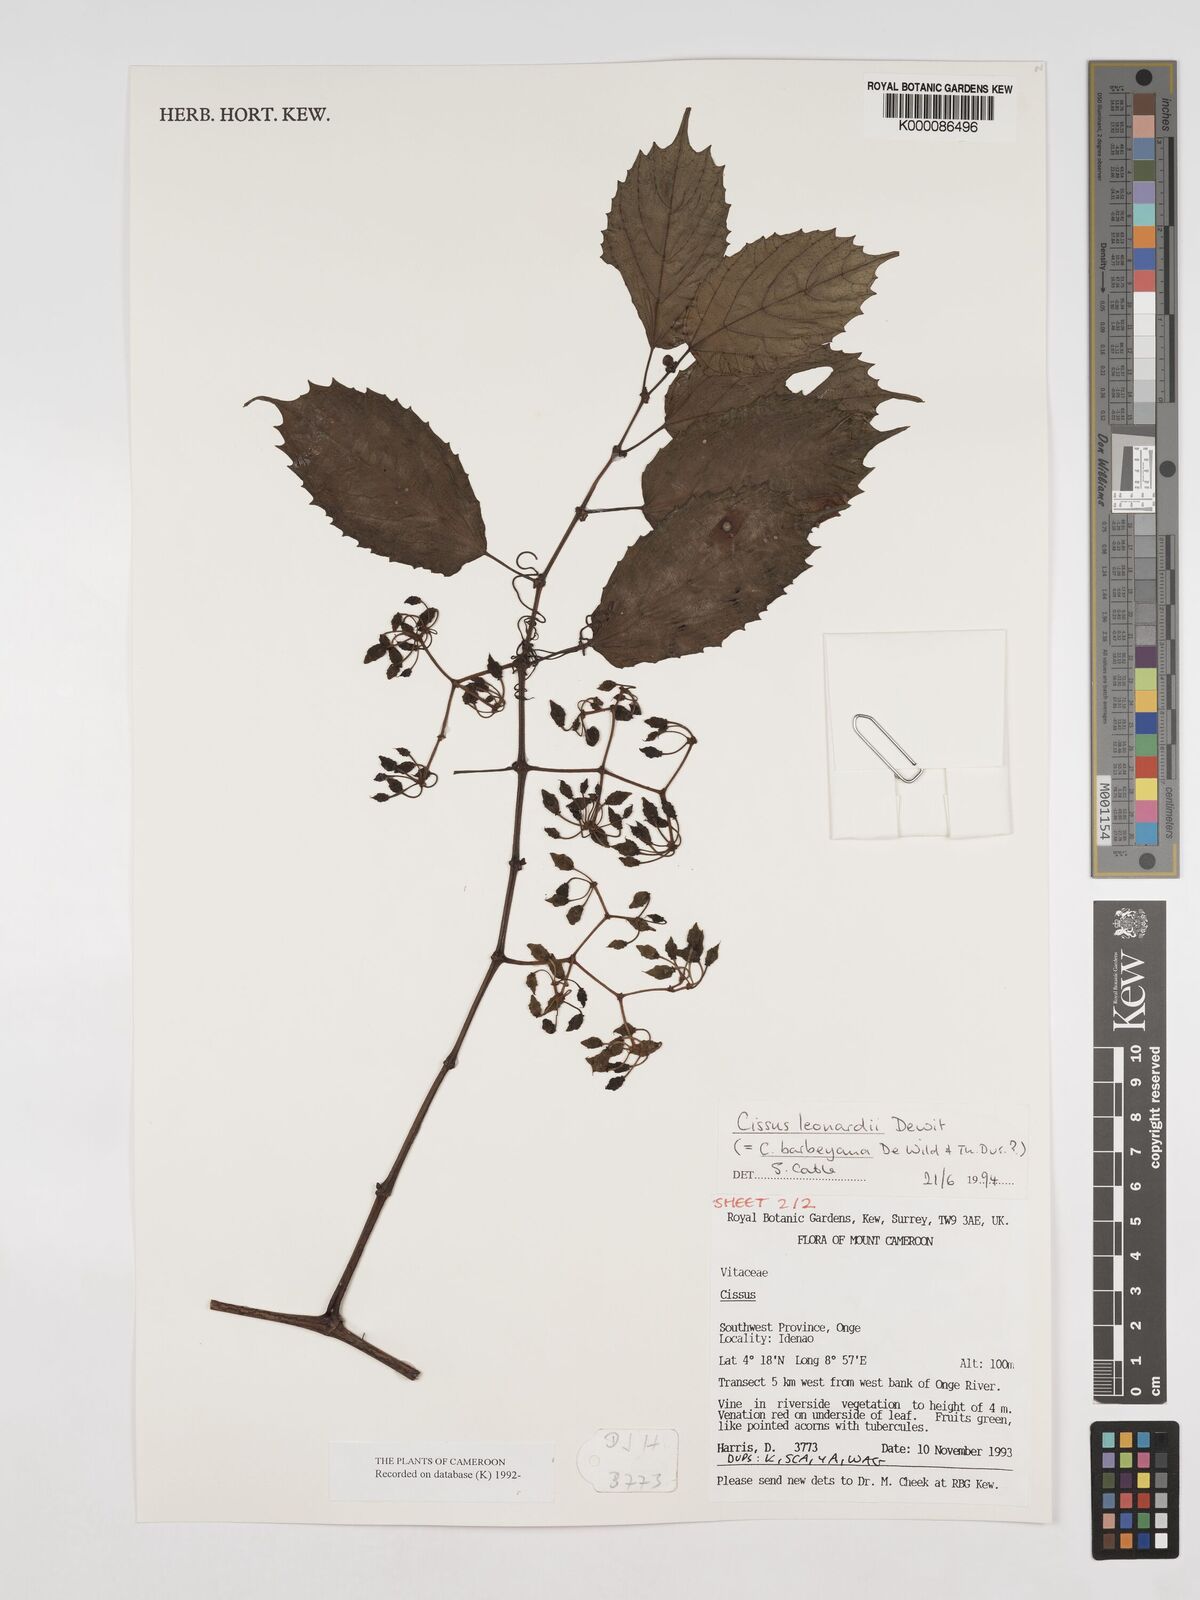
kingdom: Plantae
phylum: Tracheophyta
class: Magnoliopsida
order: Vitales
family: Vitaceae
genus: Cissus
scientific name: Cissus leonardii
